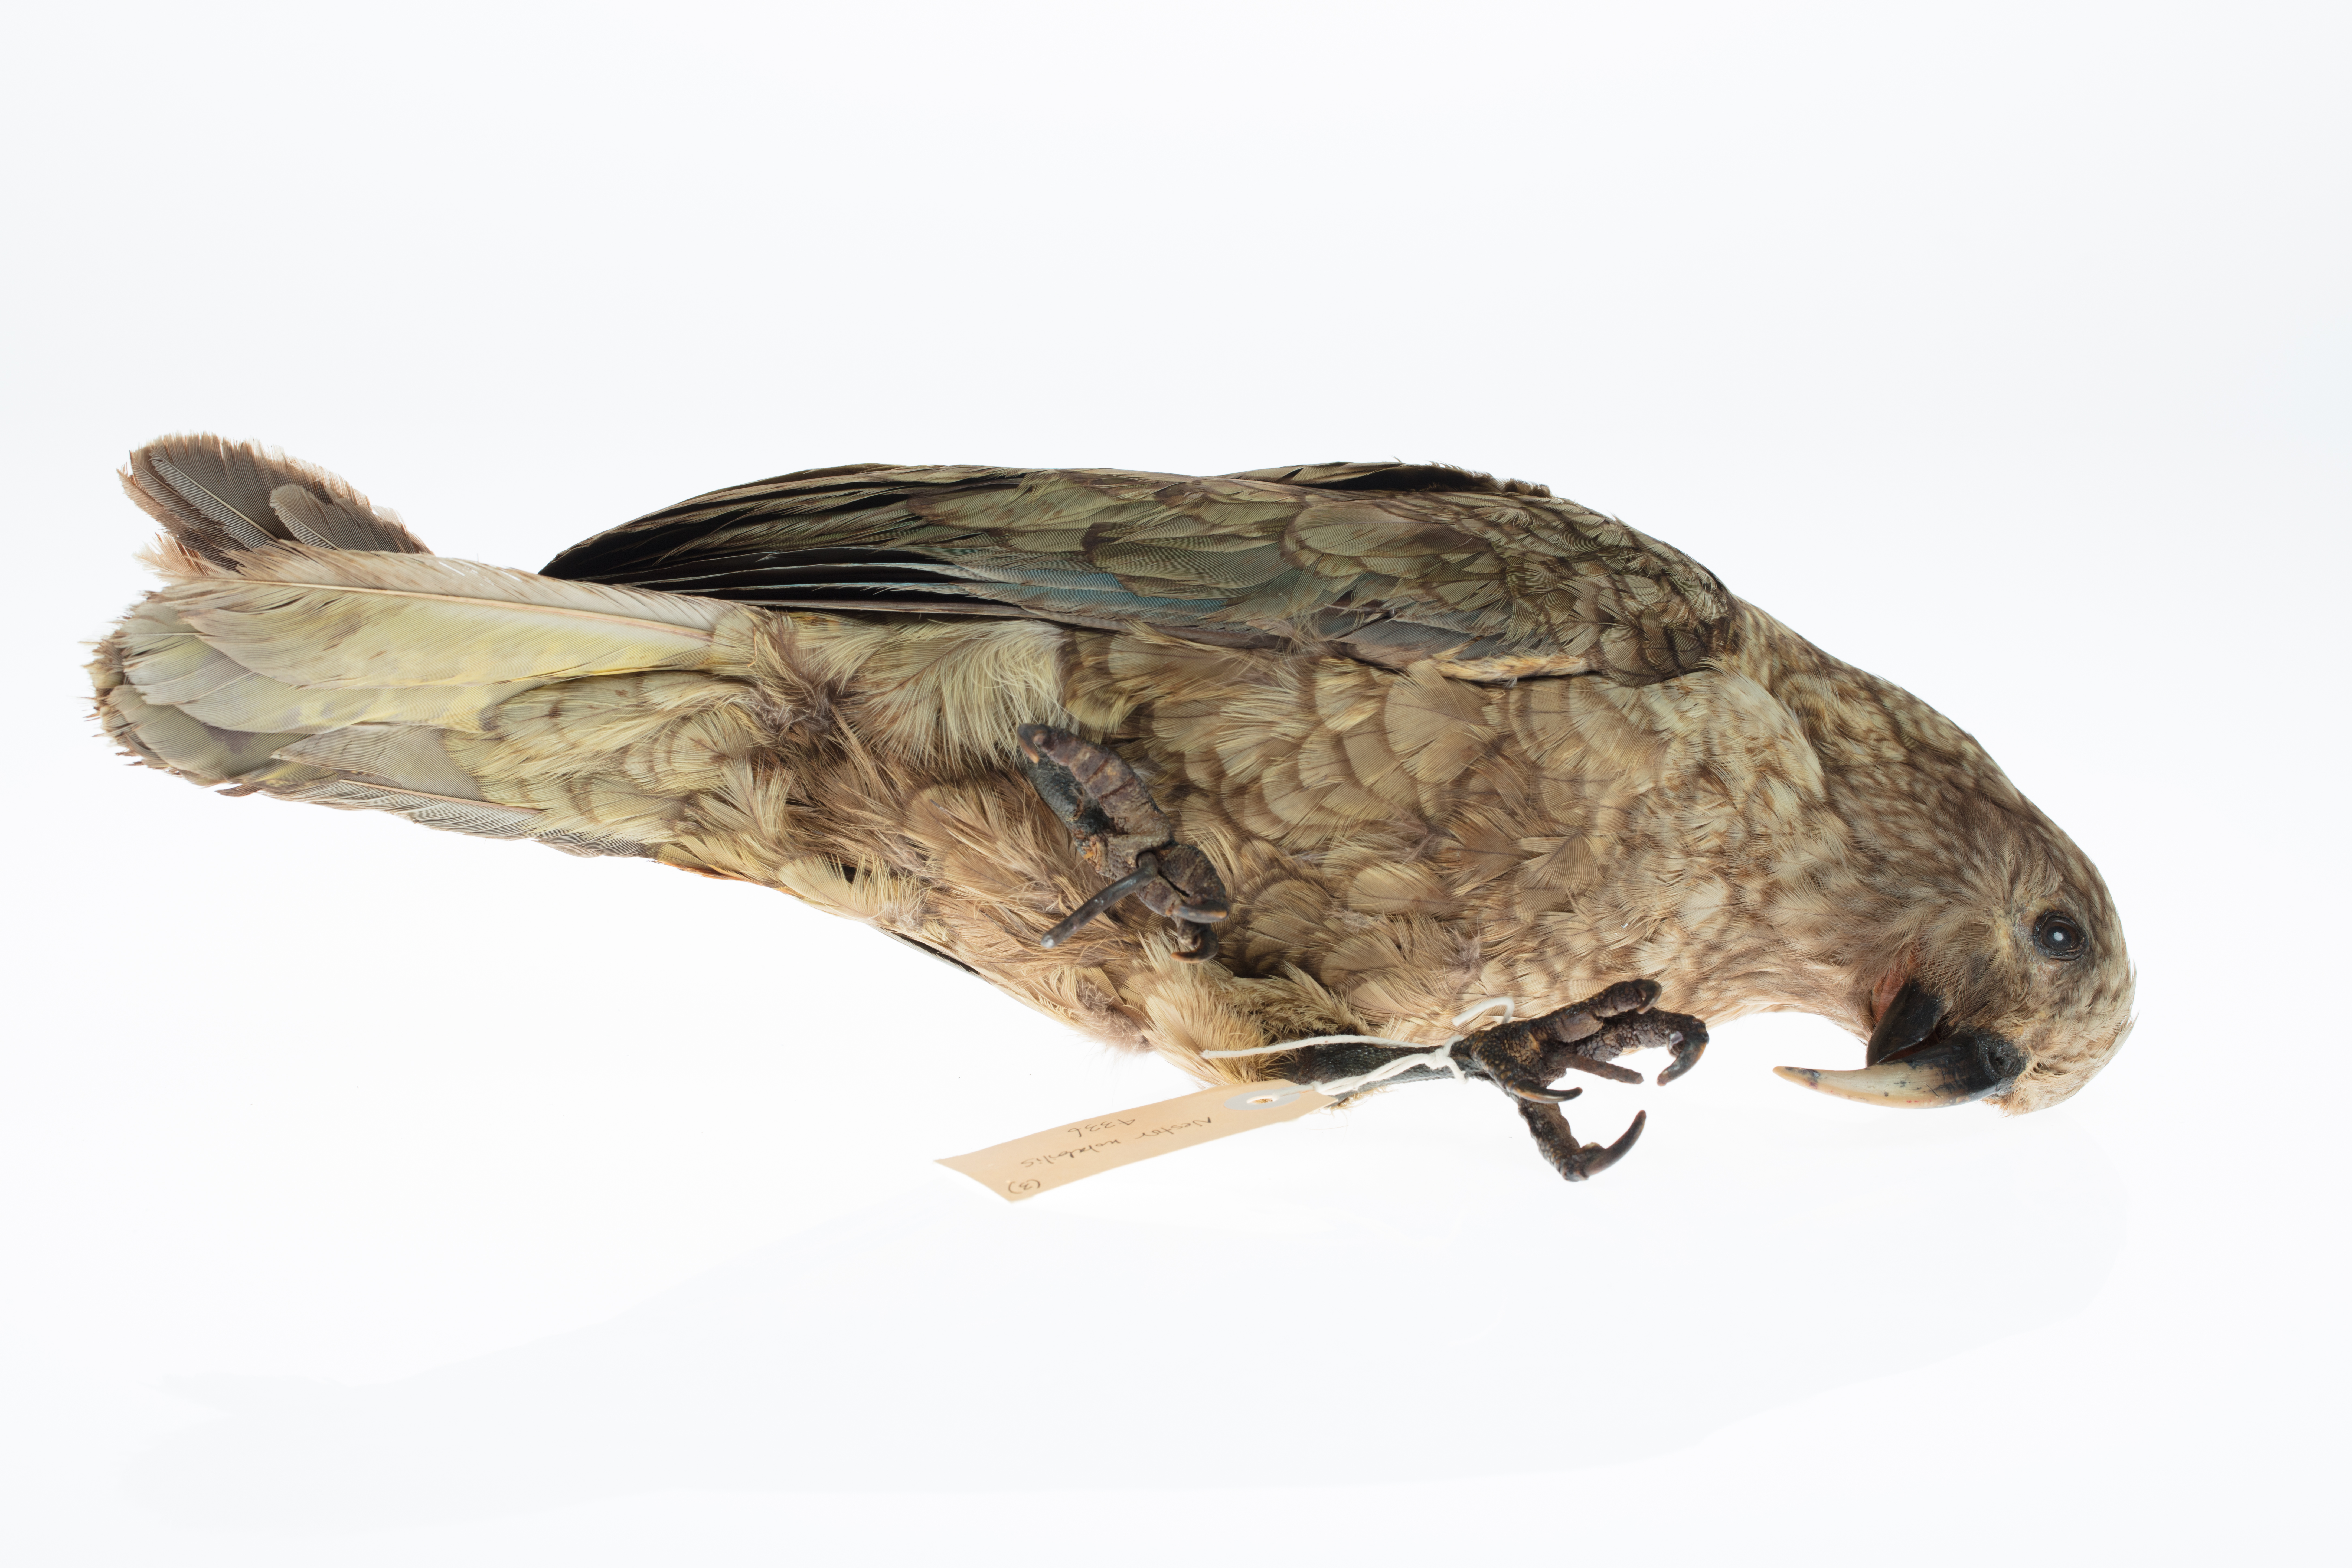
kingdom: Animalia
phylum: Chordata
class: Aves
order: Psittaciformes
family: Psittacidae
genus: Nestor
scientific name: Nestor notabilis
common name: Kea
